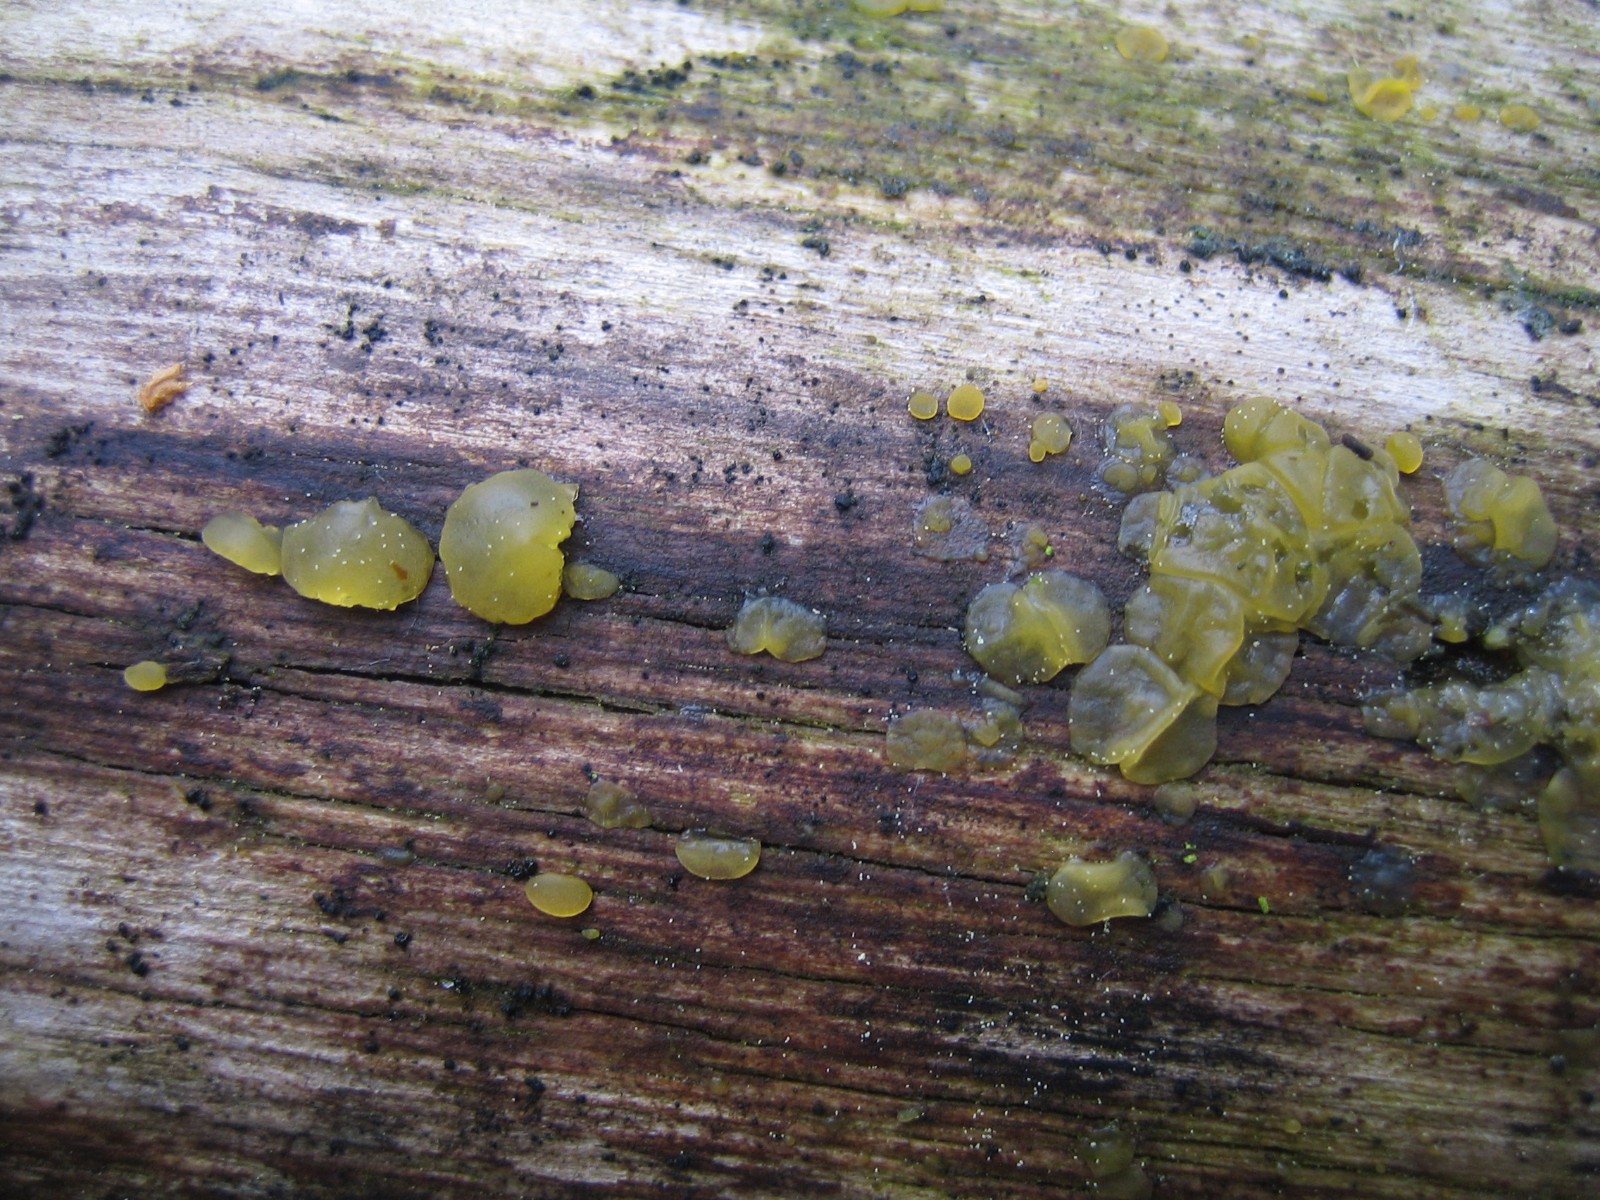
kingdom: Fungi
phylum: Basidiomycota
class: Dacrymycetes
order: Dacrymycetales
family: Dacrymycetaceae
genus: Dacrymyces
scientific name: Dacrymyces lacrymalis
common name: rynket tåresvamp
